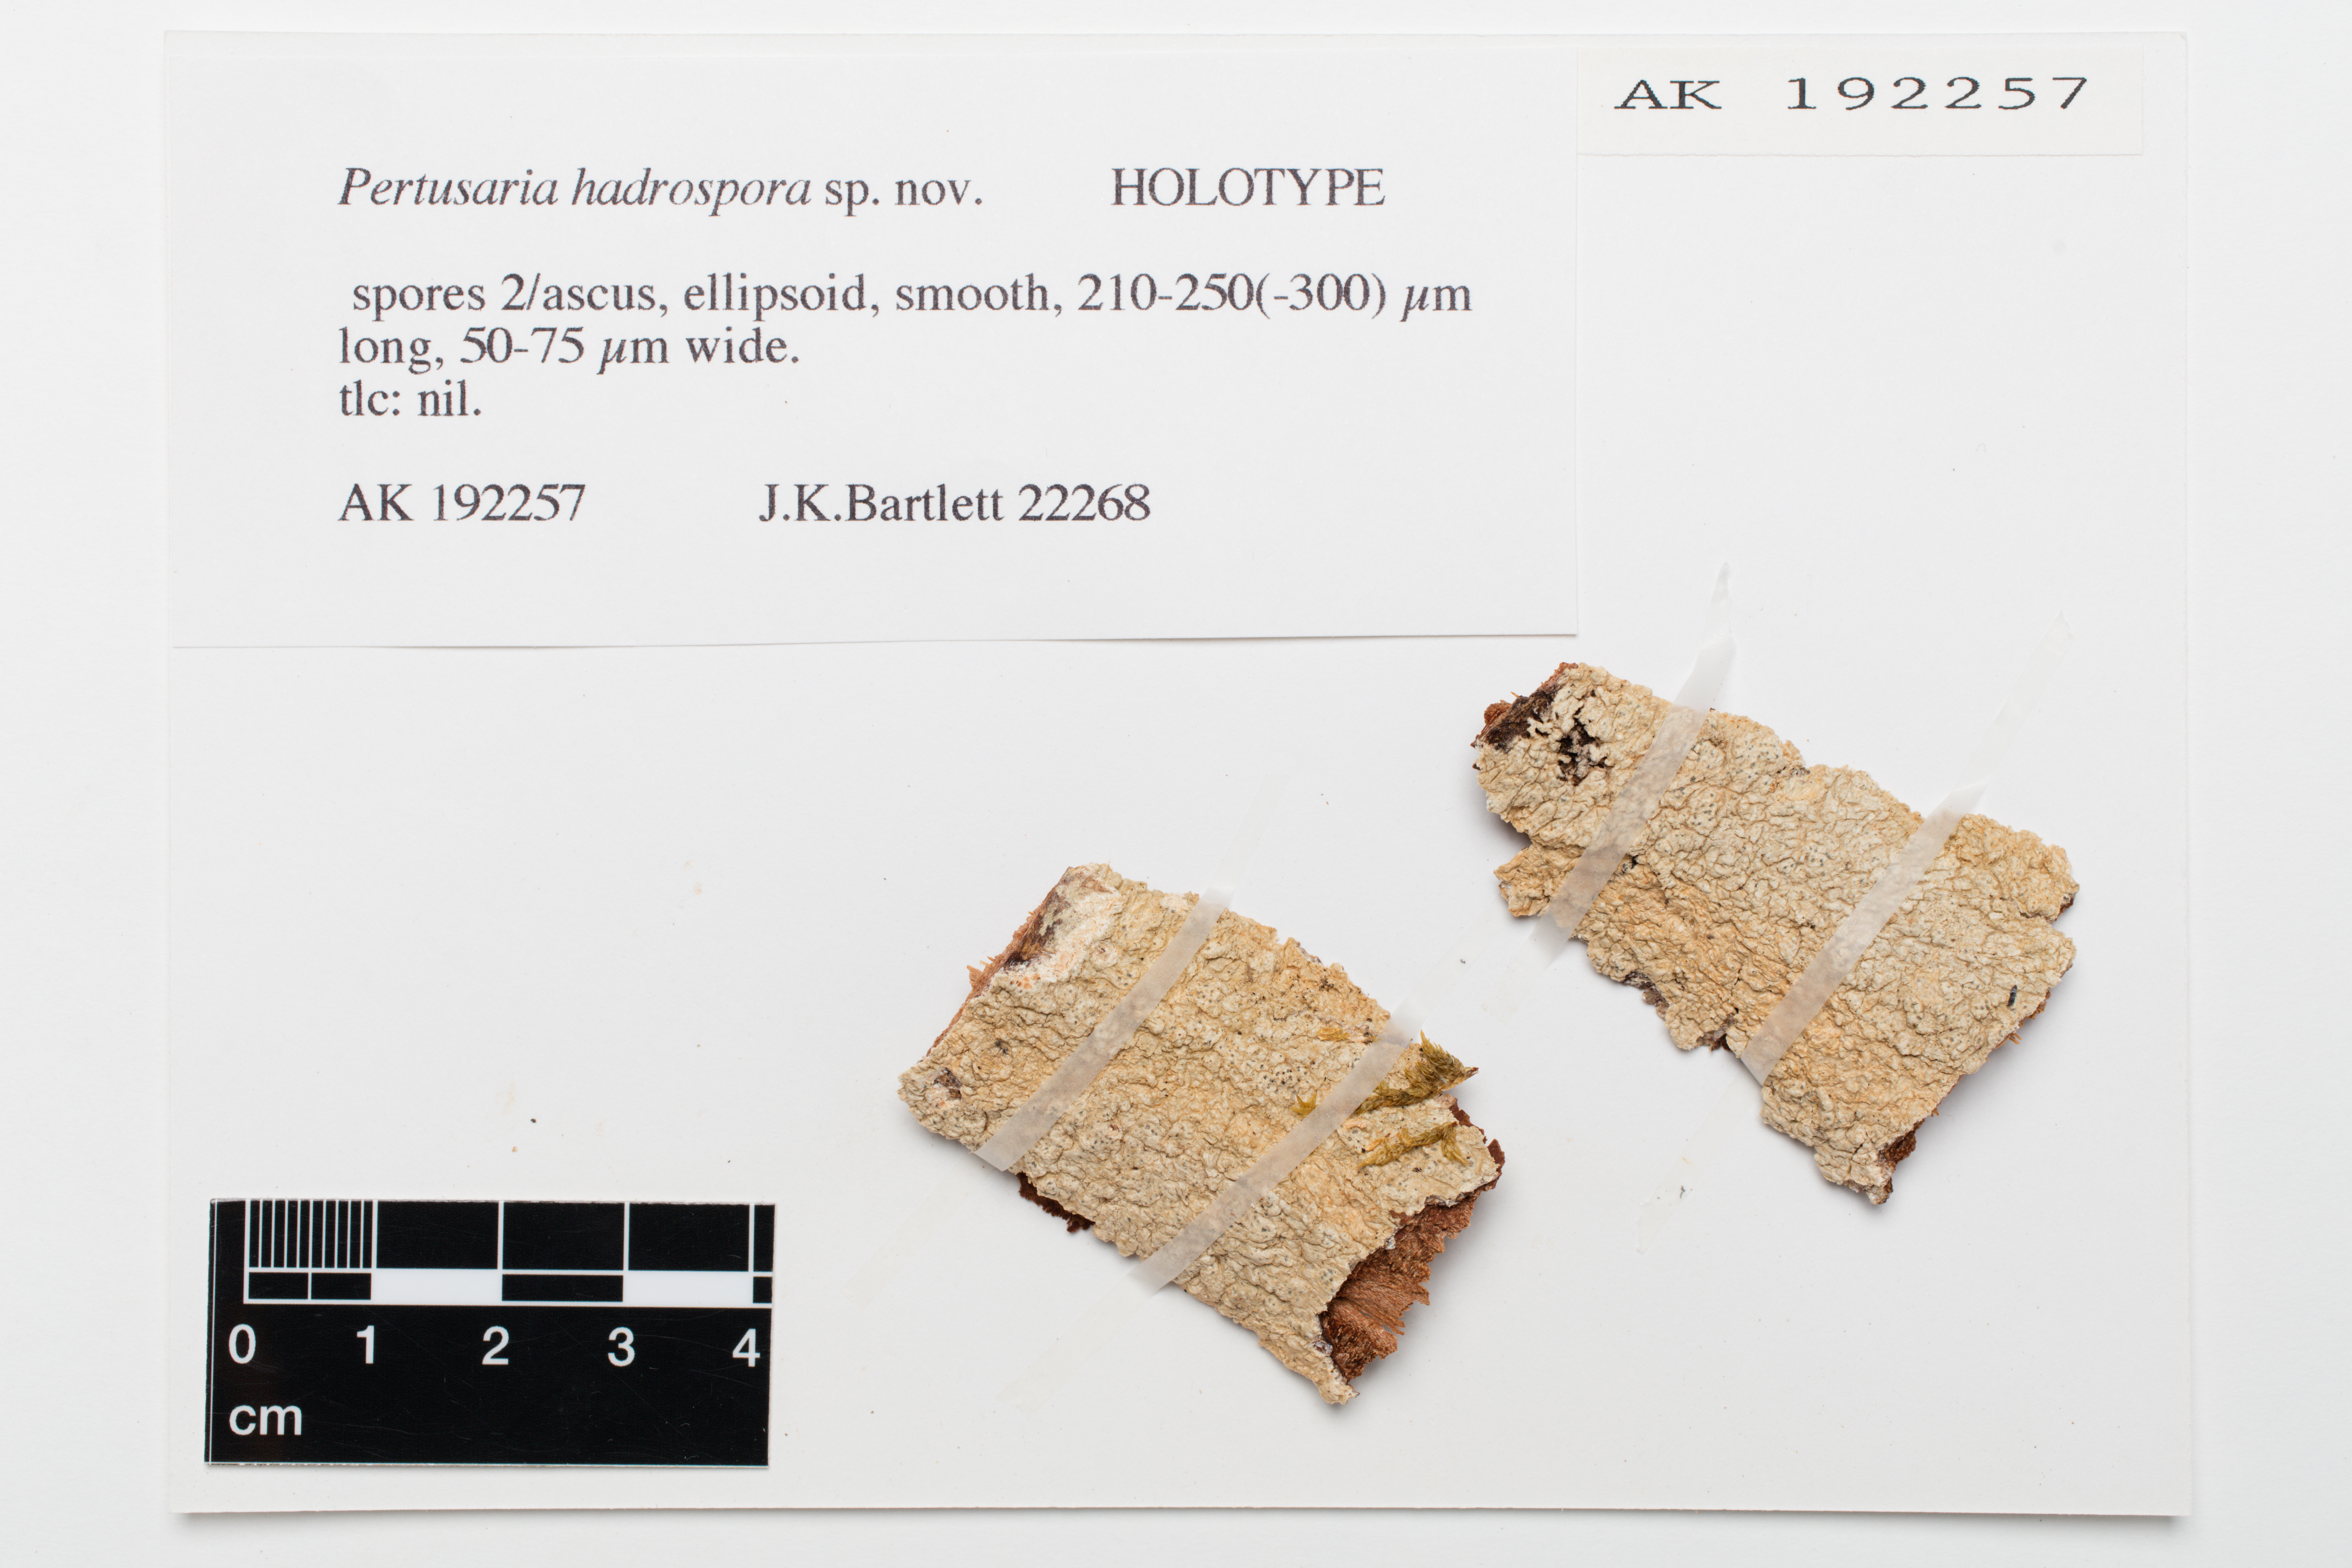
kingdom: Fungi
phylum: Ascomycota
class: Lecanoromycetes
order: Pertusariales
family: Pertusariaceae
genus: Pertusaria
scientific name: Pertusaria hadrospora
